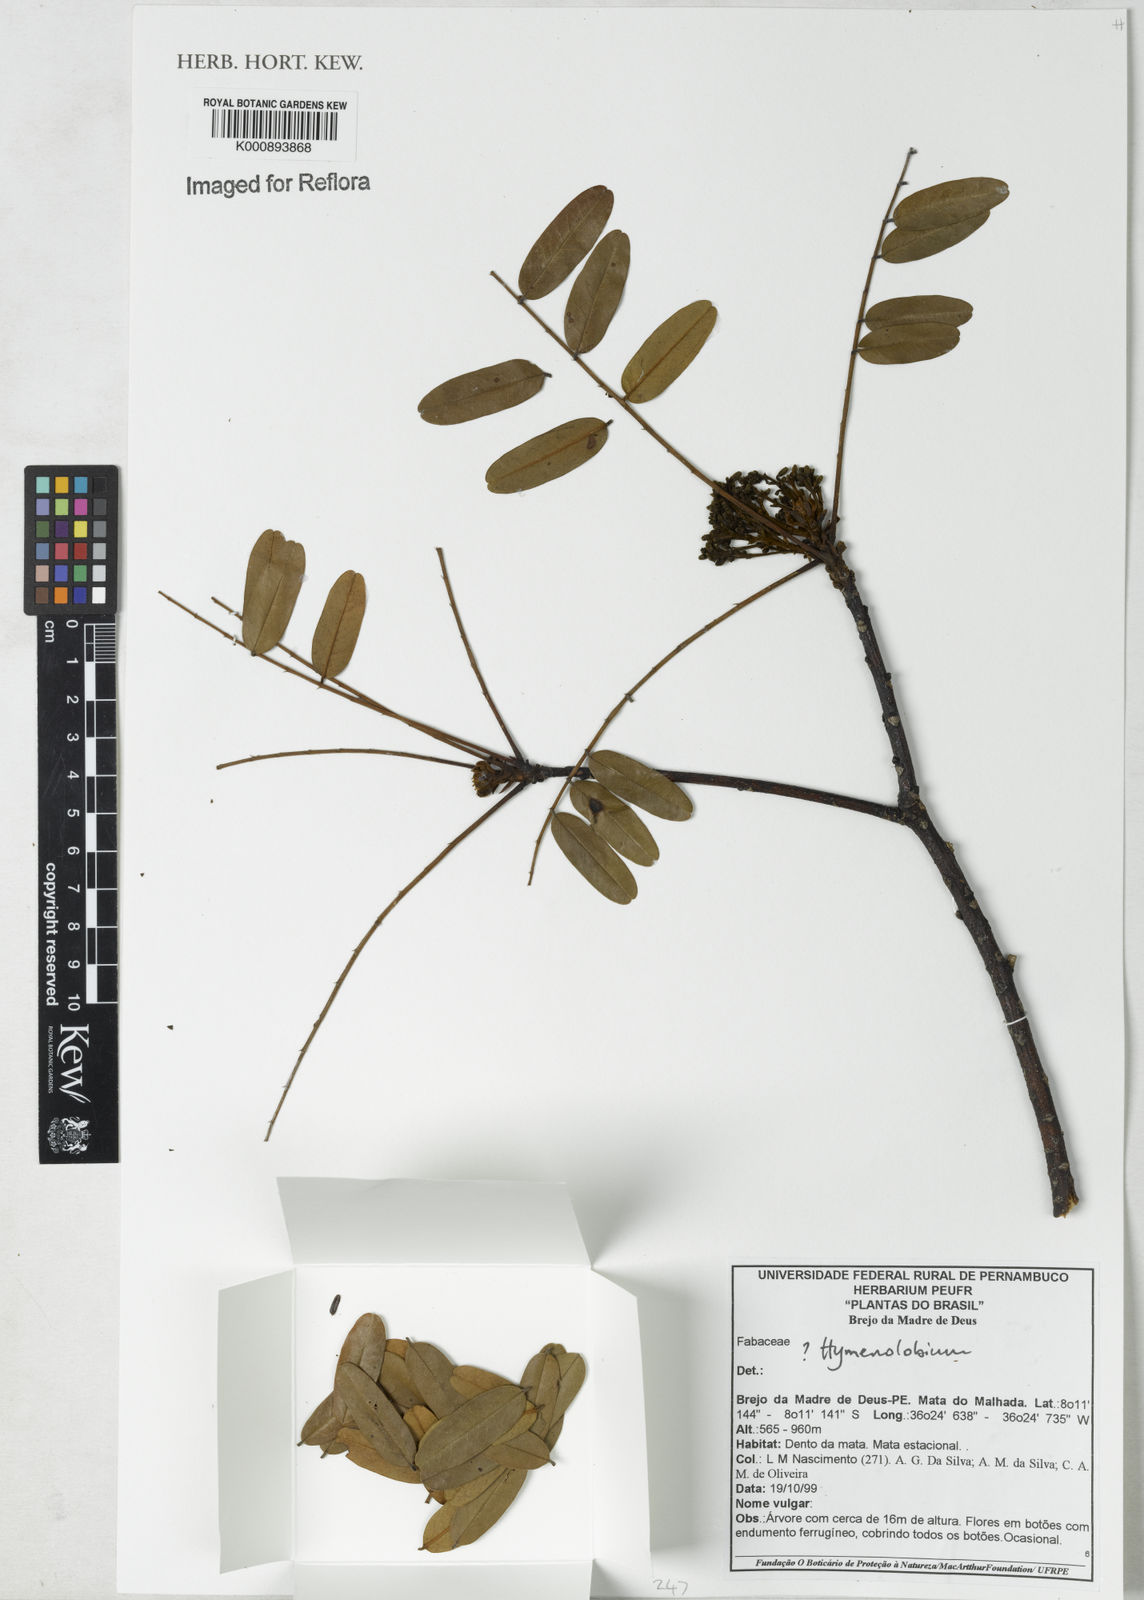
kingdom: Plantae
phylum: Tracheophyta
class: Magnoliopsida
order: Fabales
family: Fabaceae
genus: Hymenolobium
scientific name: Hymenolobium
